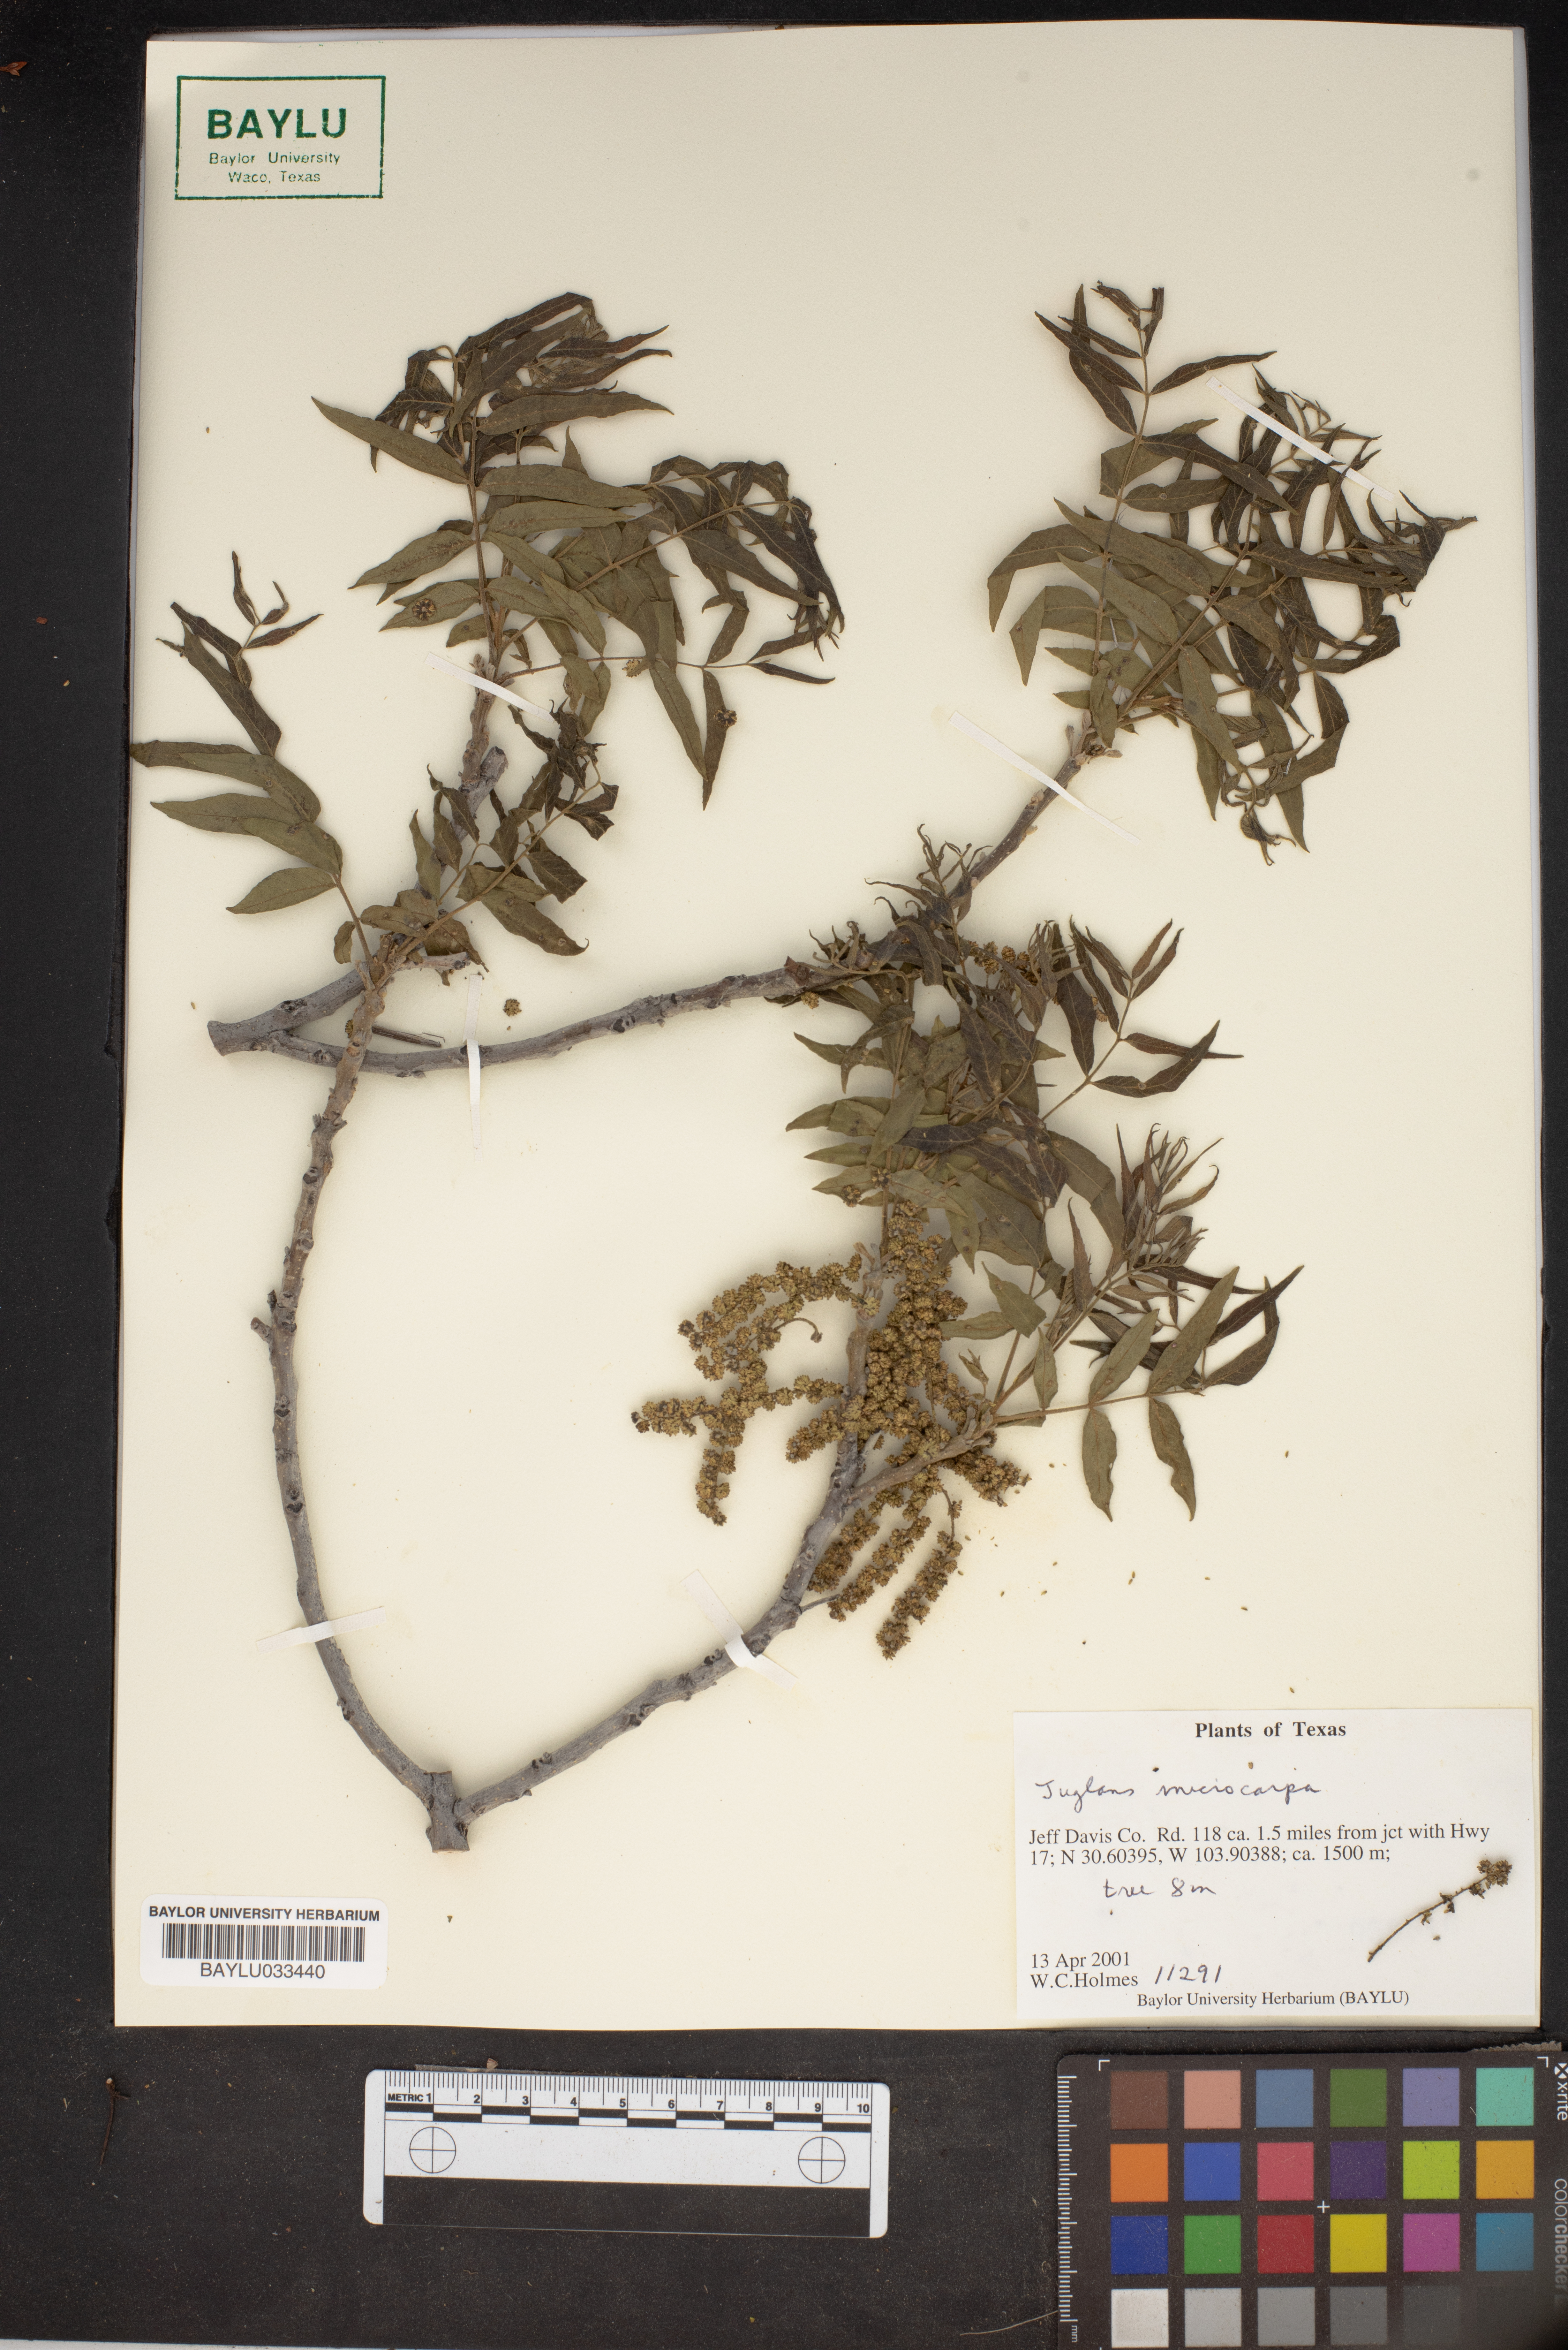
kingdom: Plantae
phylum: Tracheophyta
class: Magnoliopsida
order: Fagales
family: Juglandaceae
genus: Juglans
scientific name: Juglans microcarpa
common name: Texas walnut
